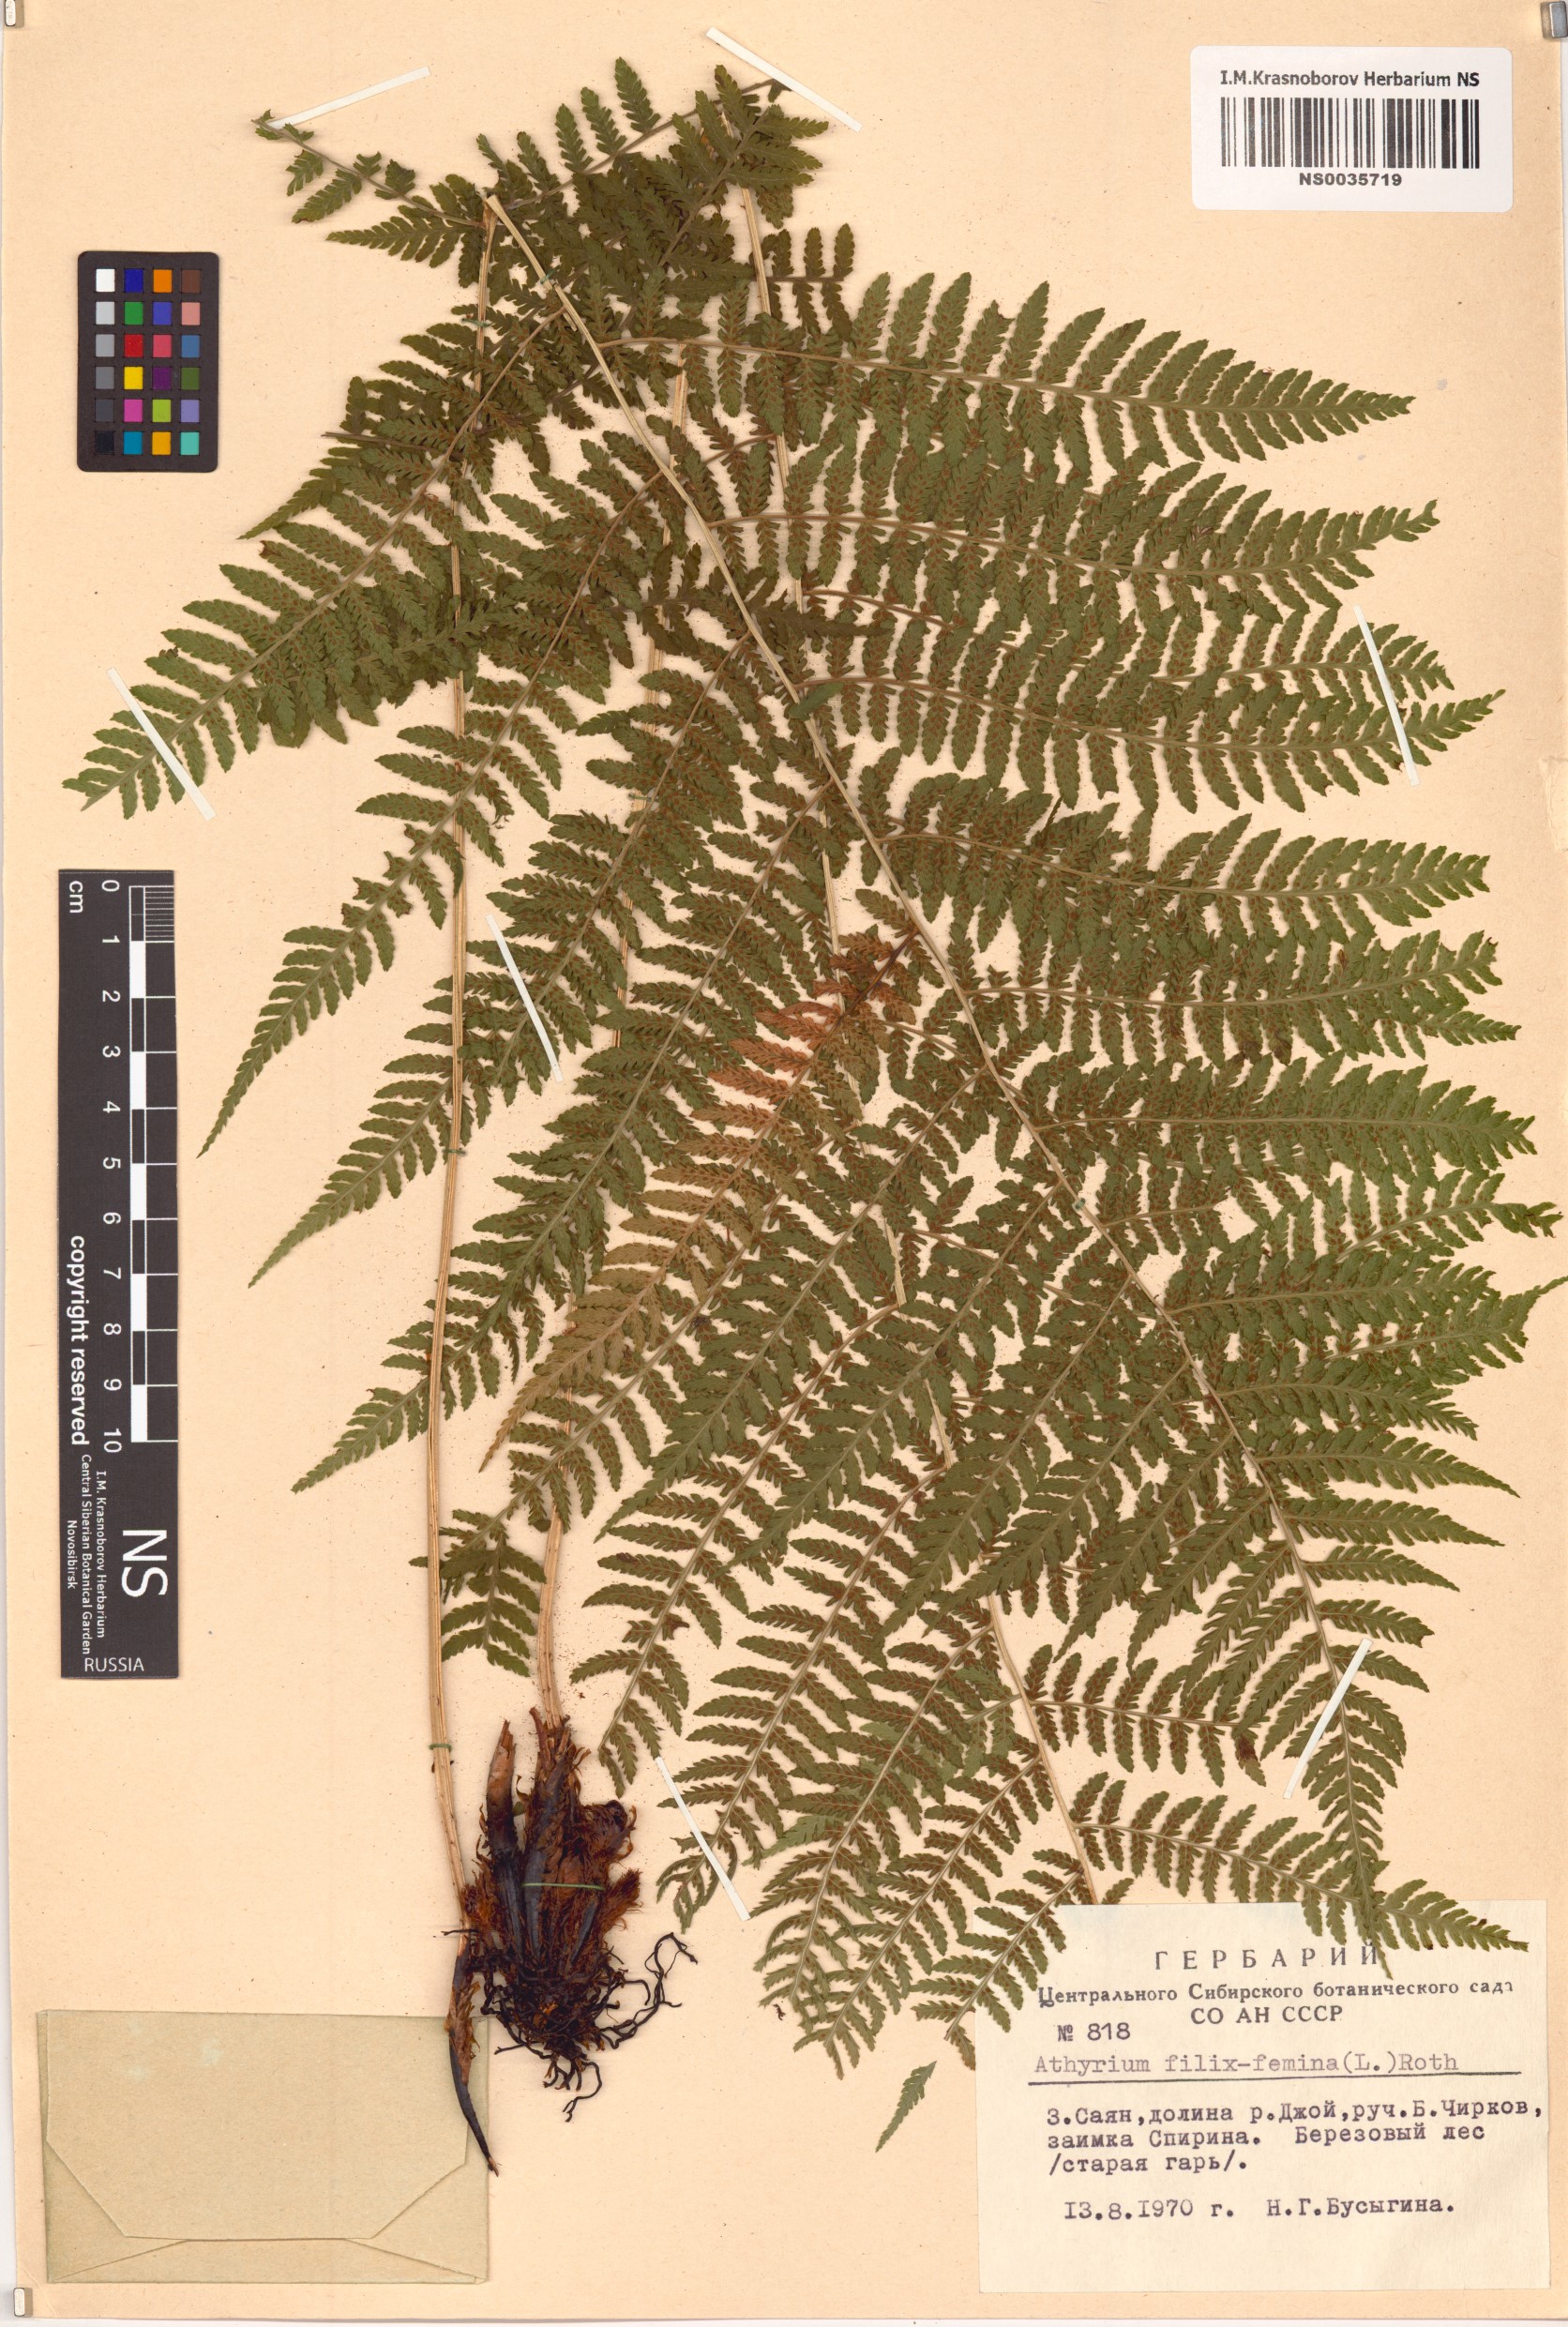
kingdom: Plantae
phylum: Tracheophyta
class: Polypodiopsida
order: Polypodiales
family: Athyriaceae
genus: Athyrium
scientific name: Athyrium filix-femina
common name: Lady fern
